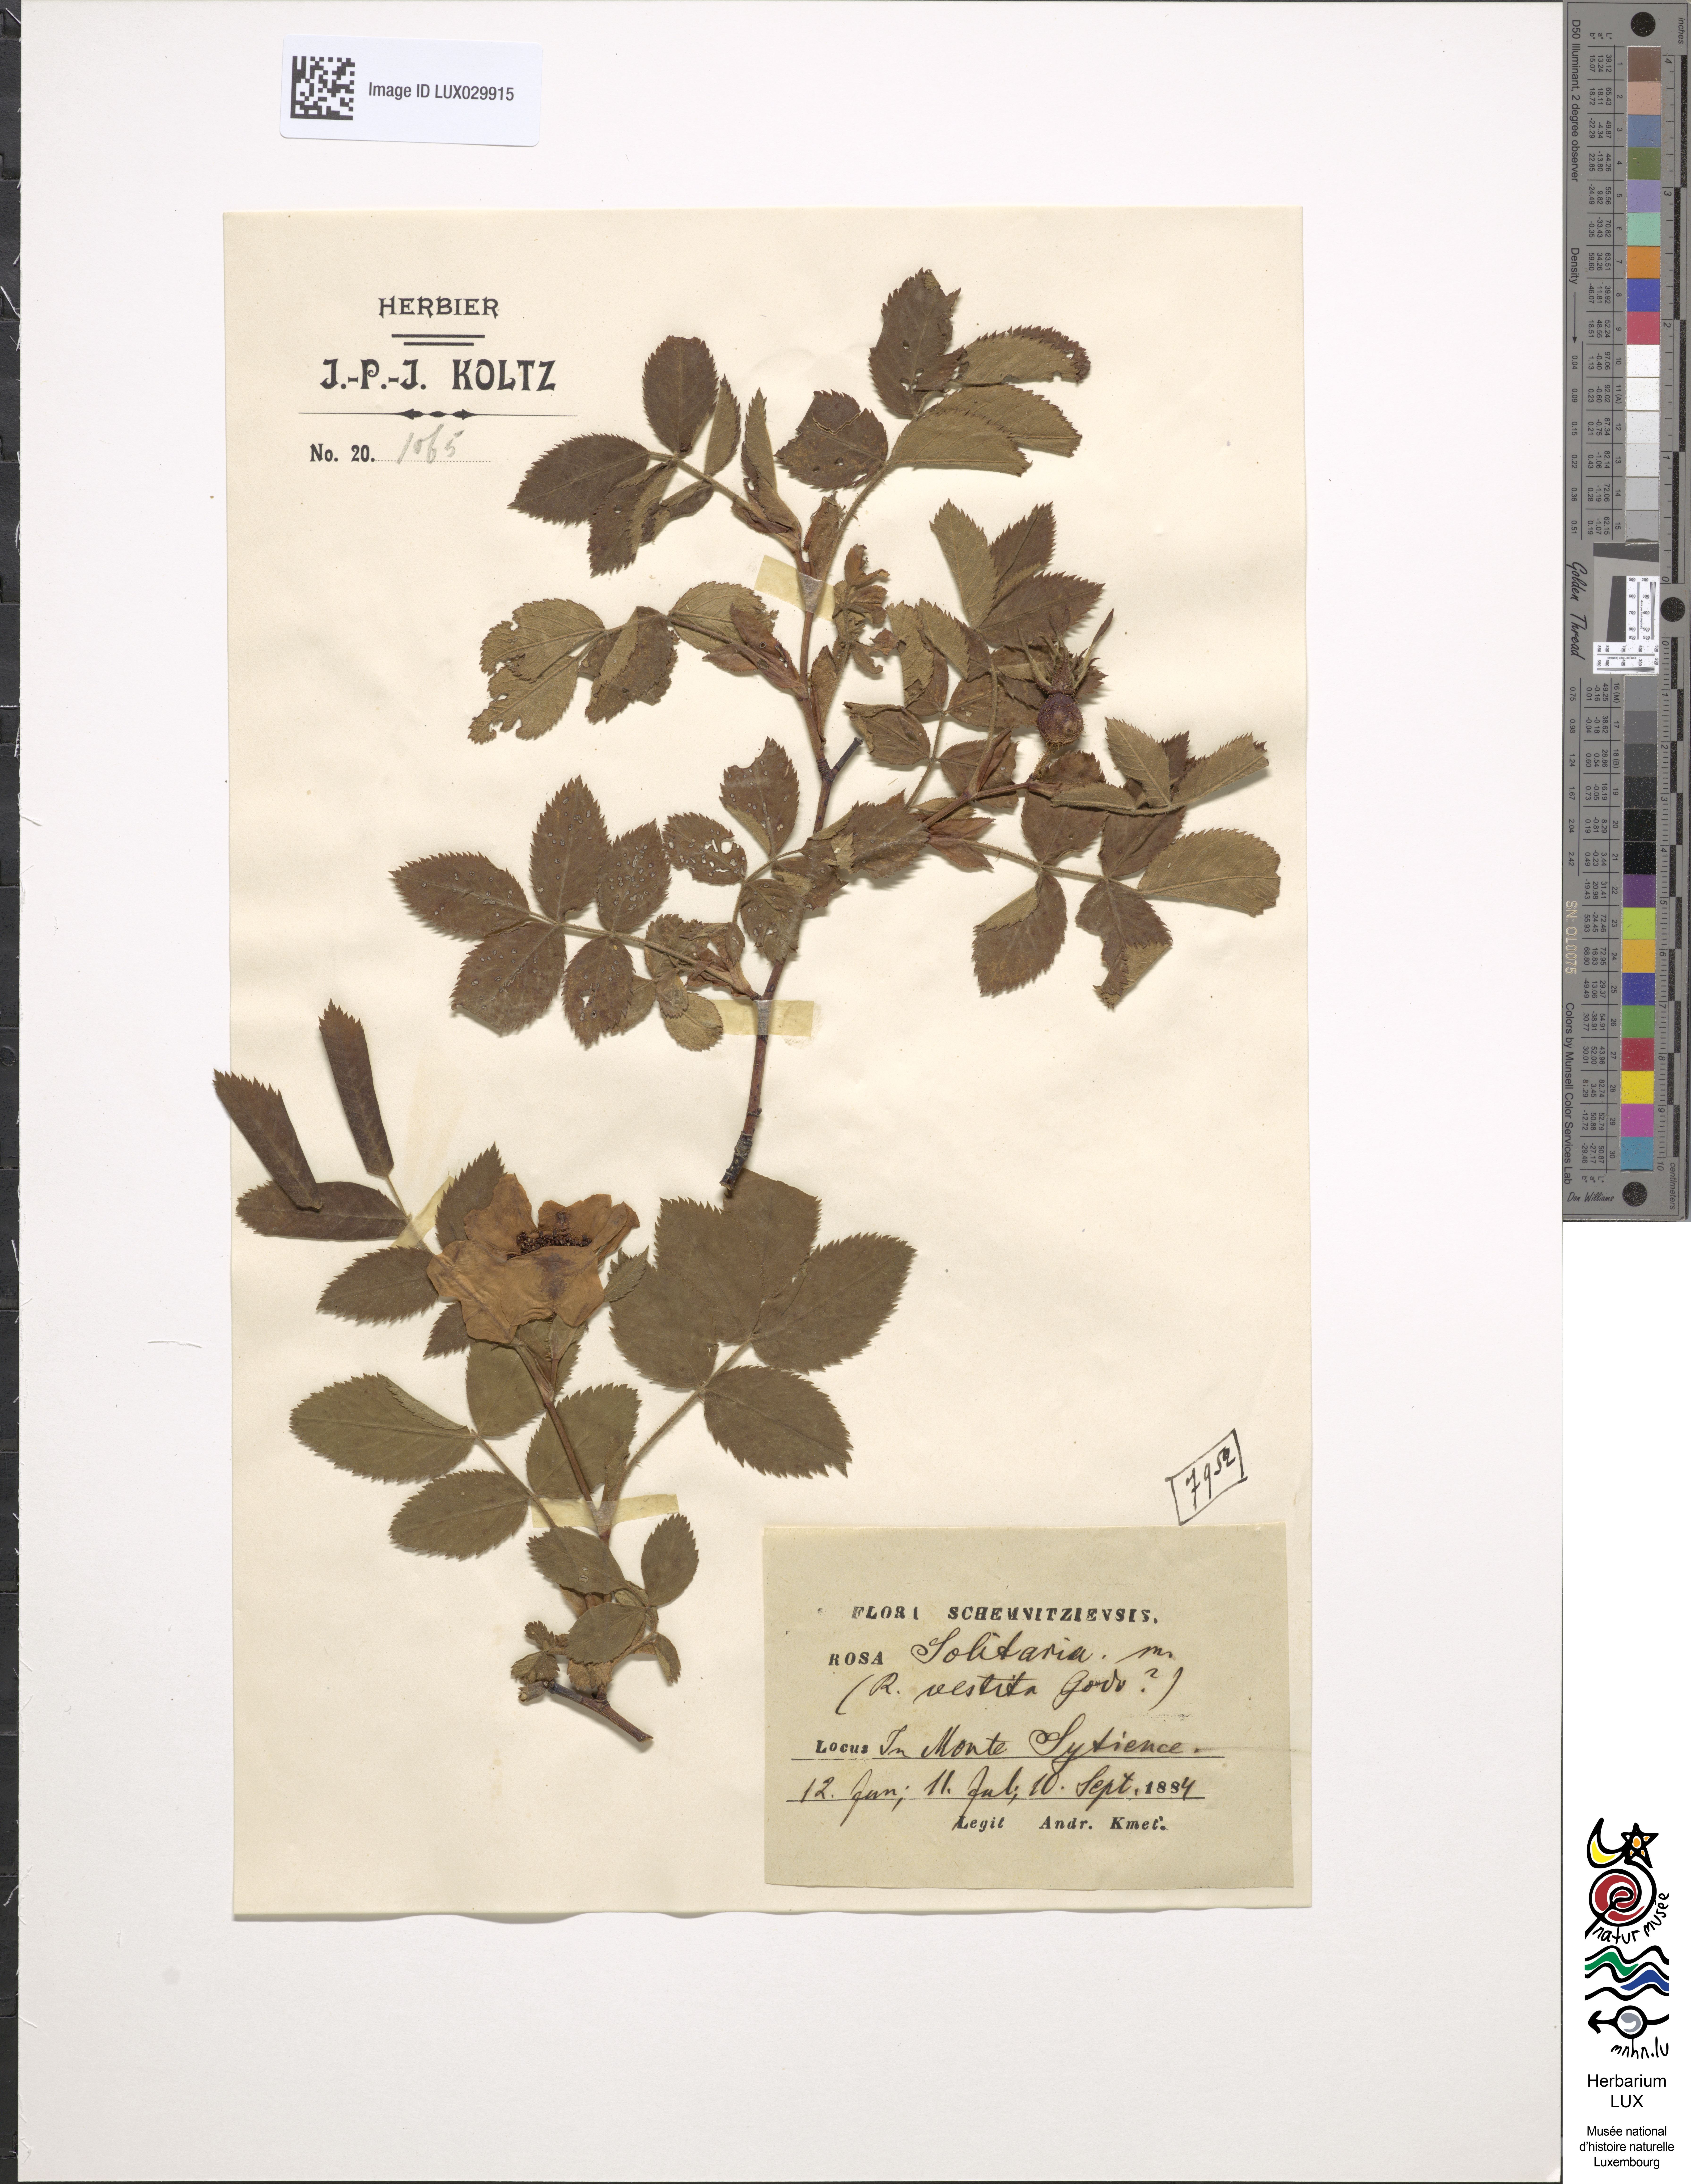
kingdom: Plantae
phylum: Tracheophyta
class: Magnoliopsida
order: Rosales
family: Rosaceae
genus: Rosa
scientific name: Rosa
